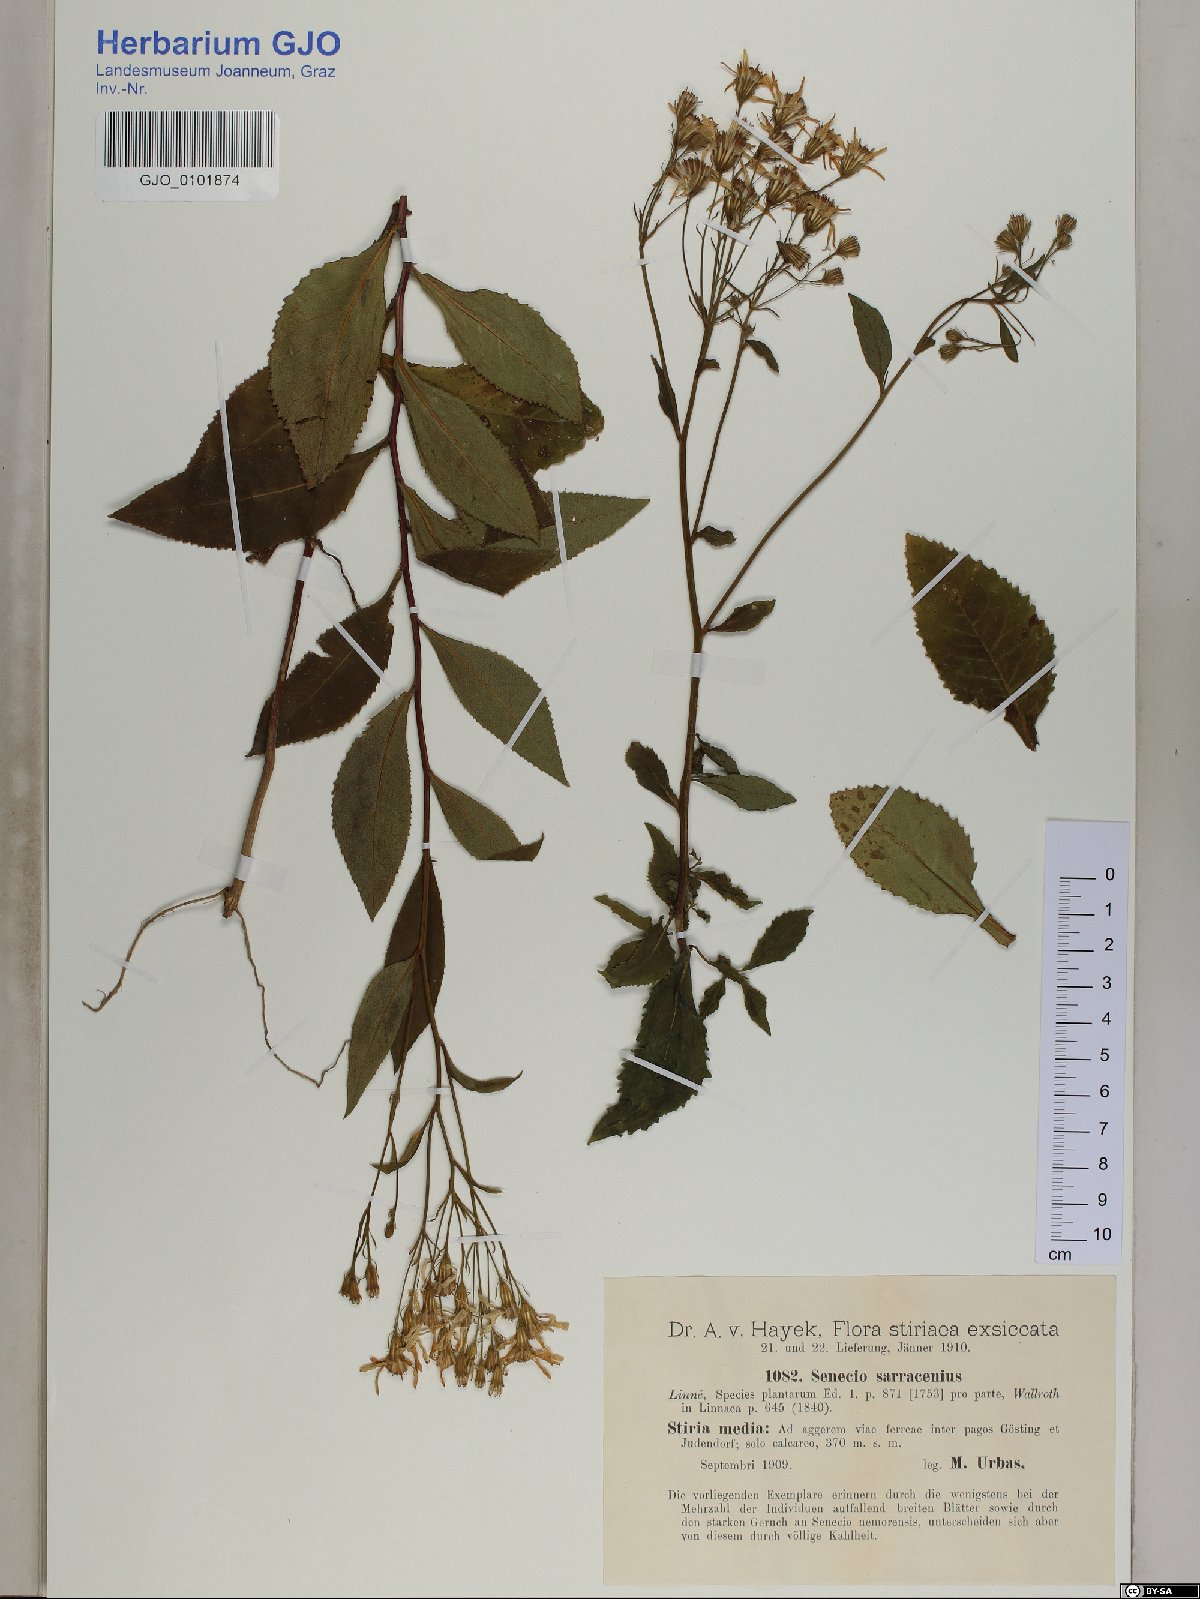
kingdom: Plantae
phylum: Tracheophyta
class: Magnoliopsida
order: Asterales
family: Asteraceae
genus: Senecio
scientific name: Senecio sarracenicus
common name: Broad-leaved ragwort
